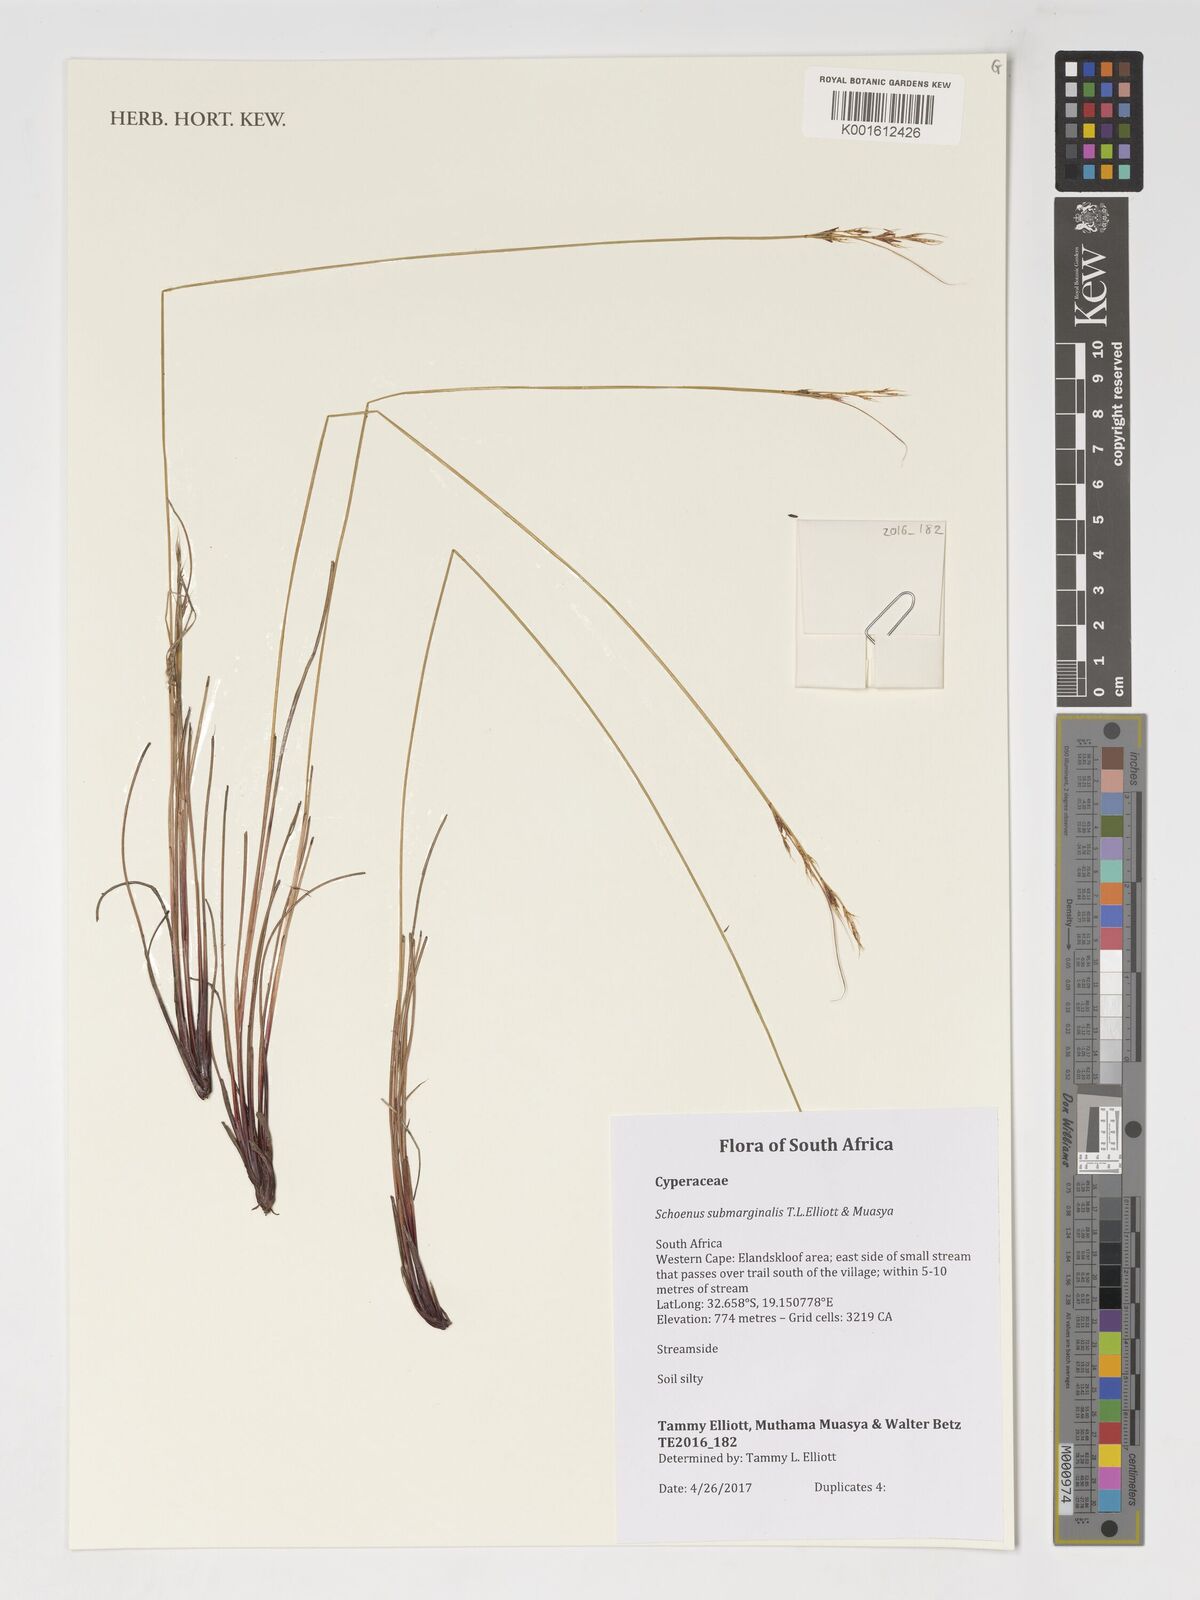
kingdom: Plantae
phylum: Tracheophyta
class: Liliopsida
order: Poales
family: Cyperaceae
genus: Schoenus
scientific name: Schoenus submarginalis
